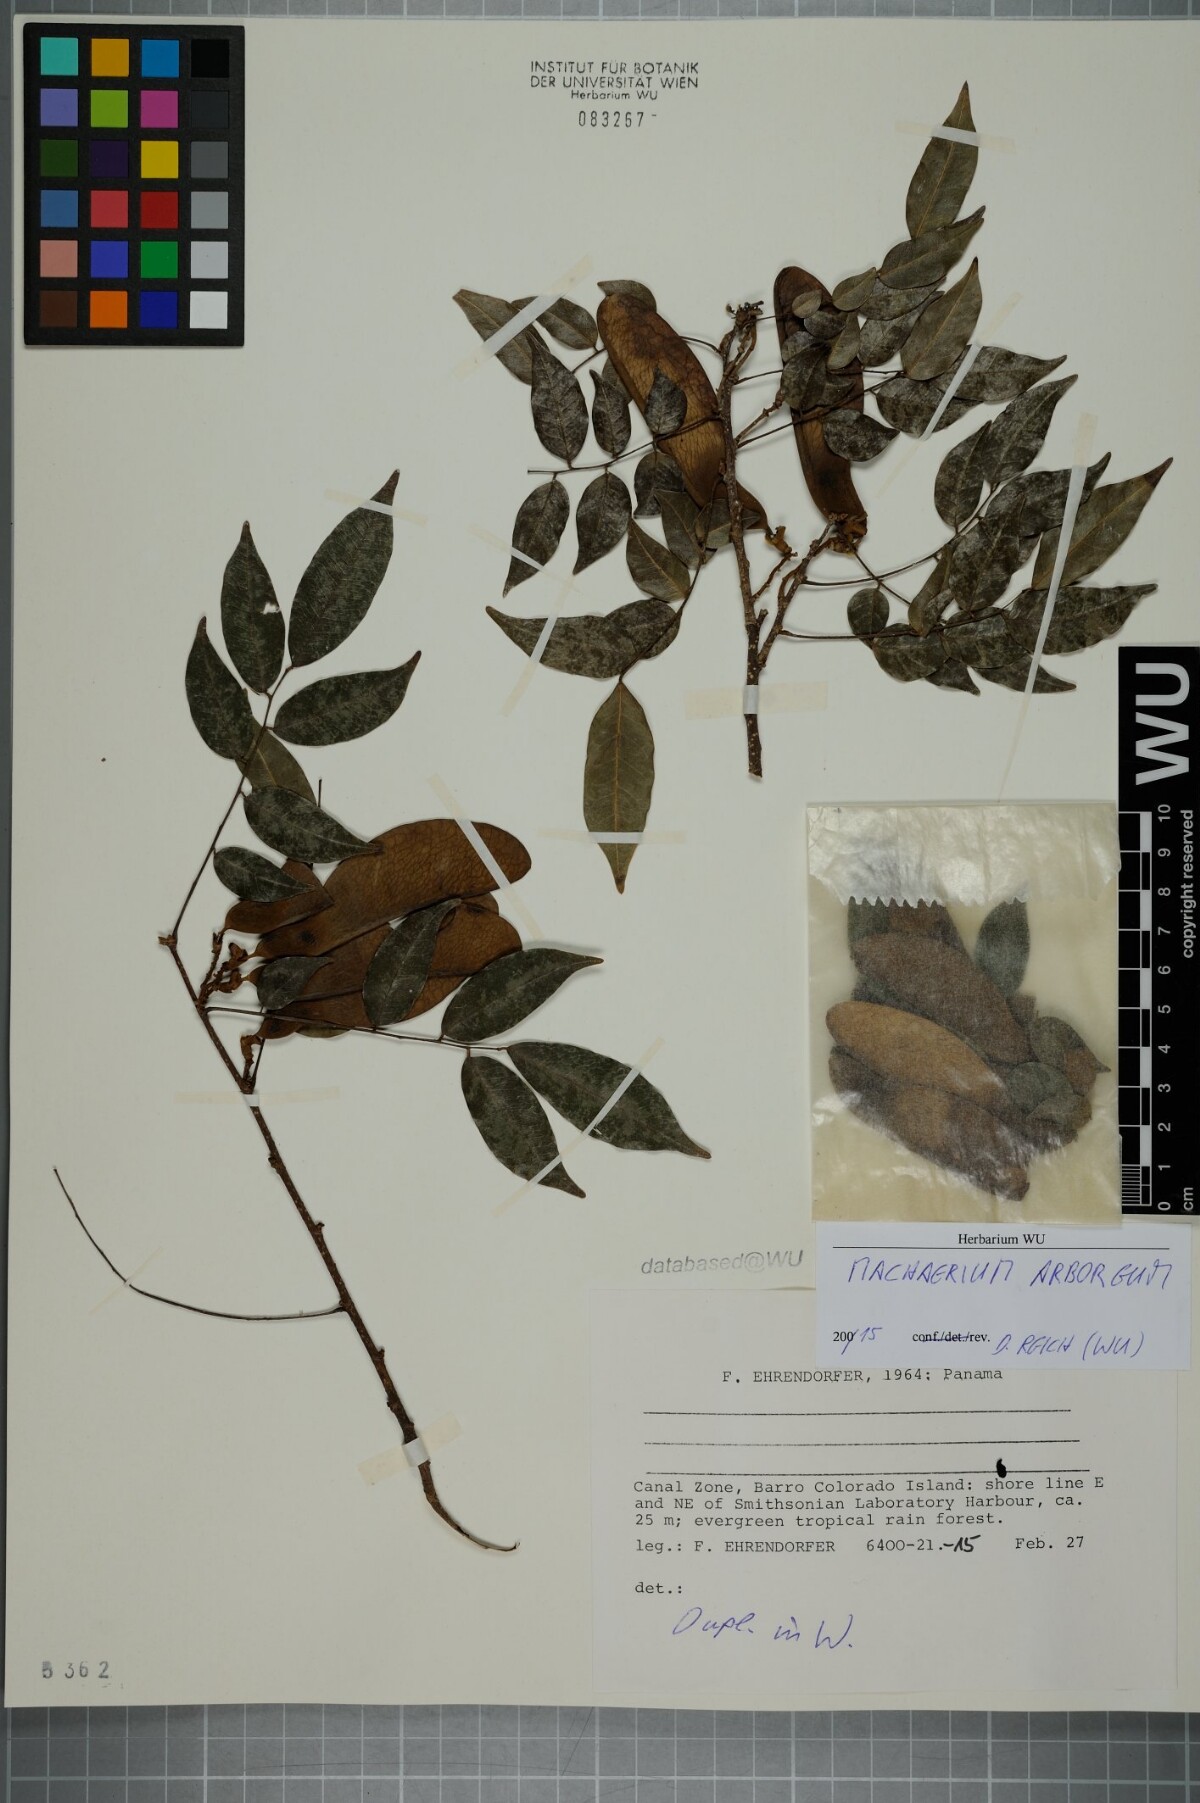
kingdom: Plantae
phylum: Tracheophyta
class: Magnoliopsida
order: Fabales
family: Fabaceae
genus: Machaerium
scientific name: Machaerium arboreum
